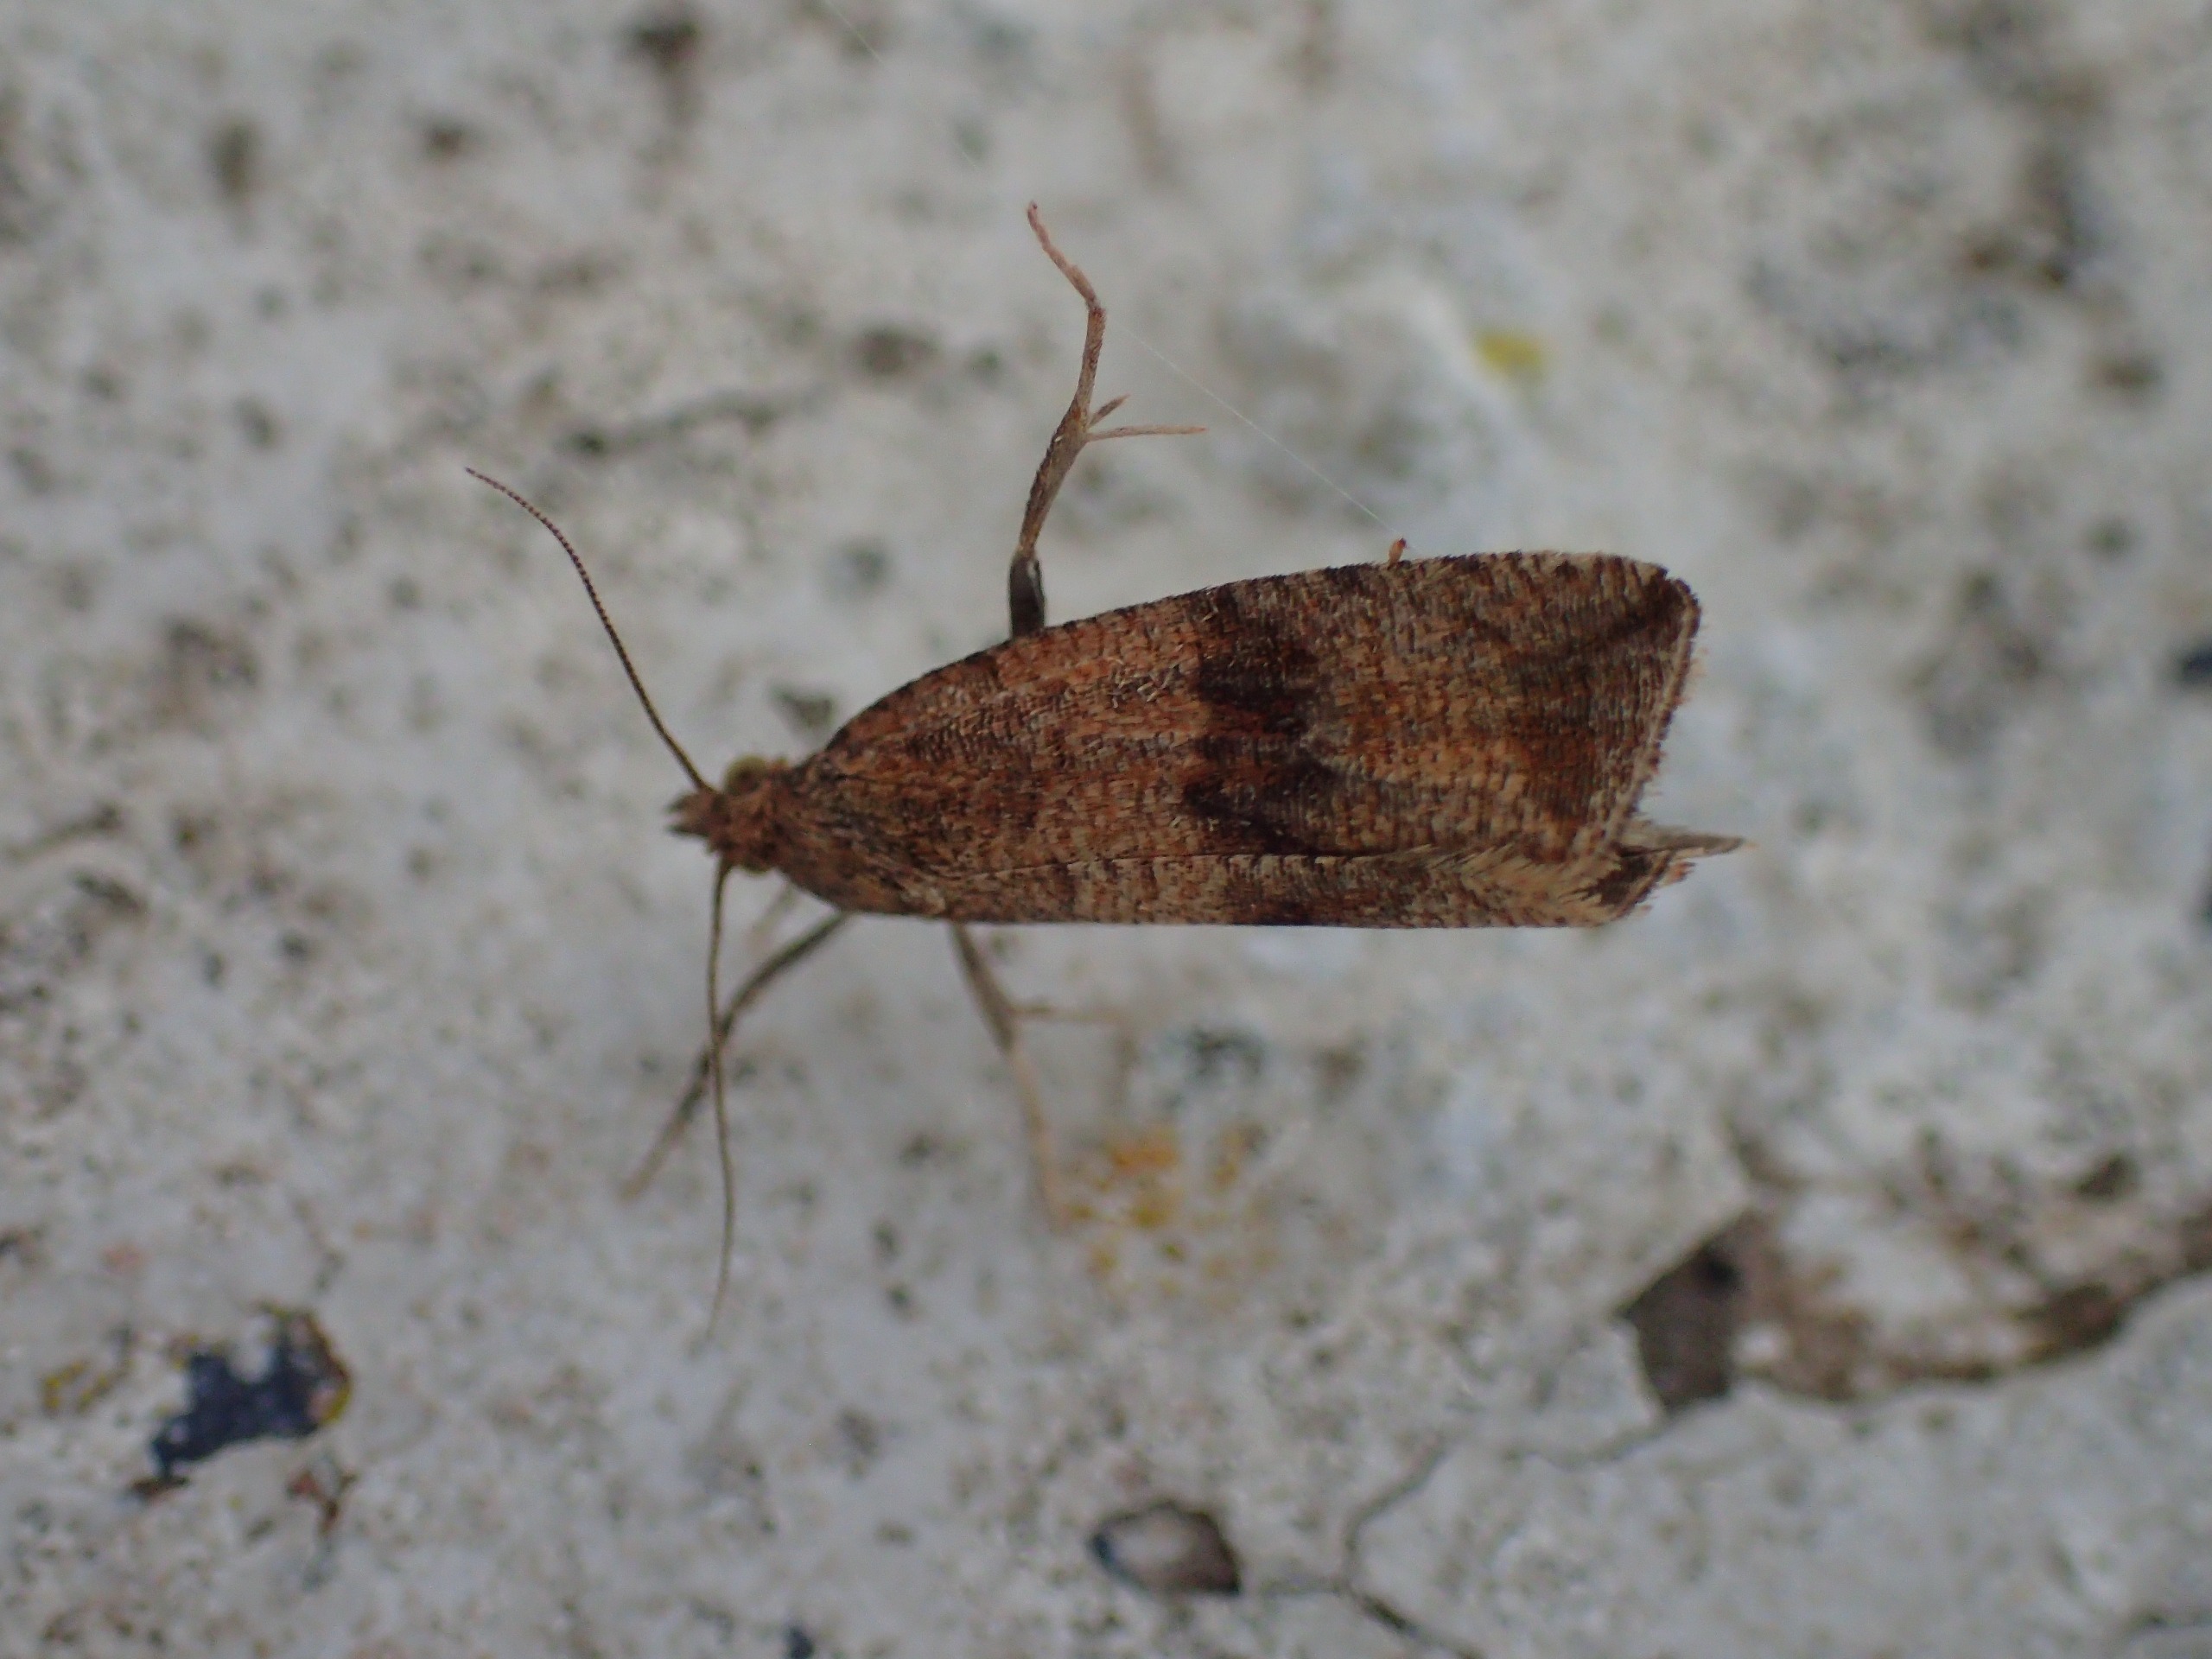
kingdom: Animalia
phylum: Arthropoda
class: Insecta
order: Lepidoptera
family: Tortricidae
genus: Celypha
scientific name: Celypha striana
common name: Mælkebøttevikler
